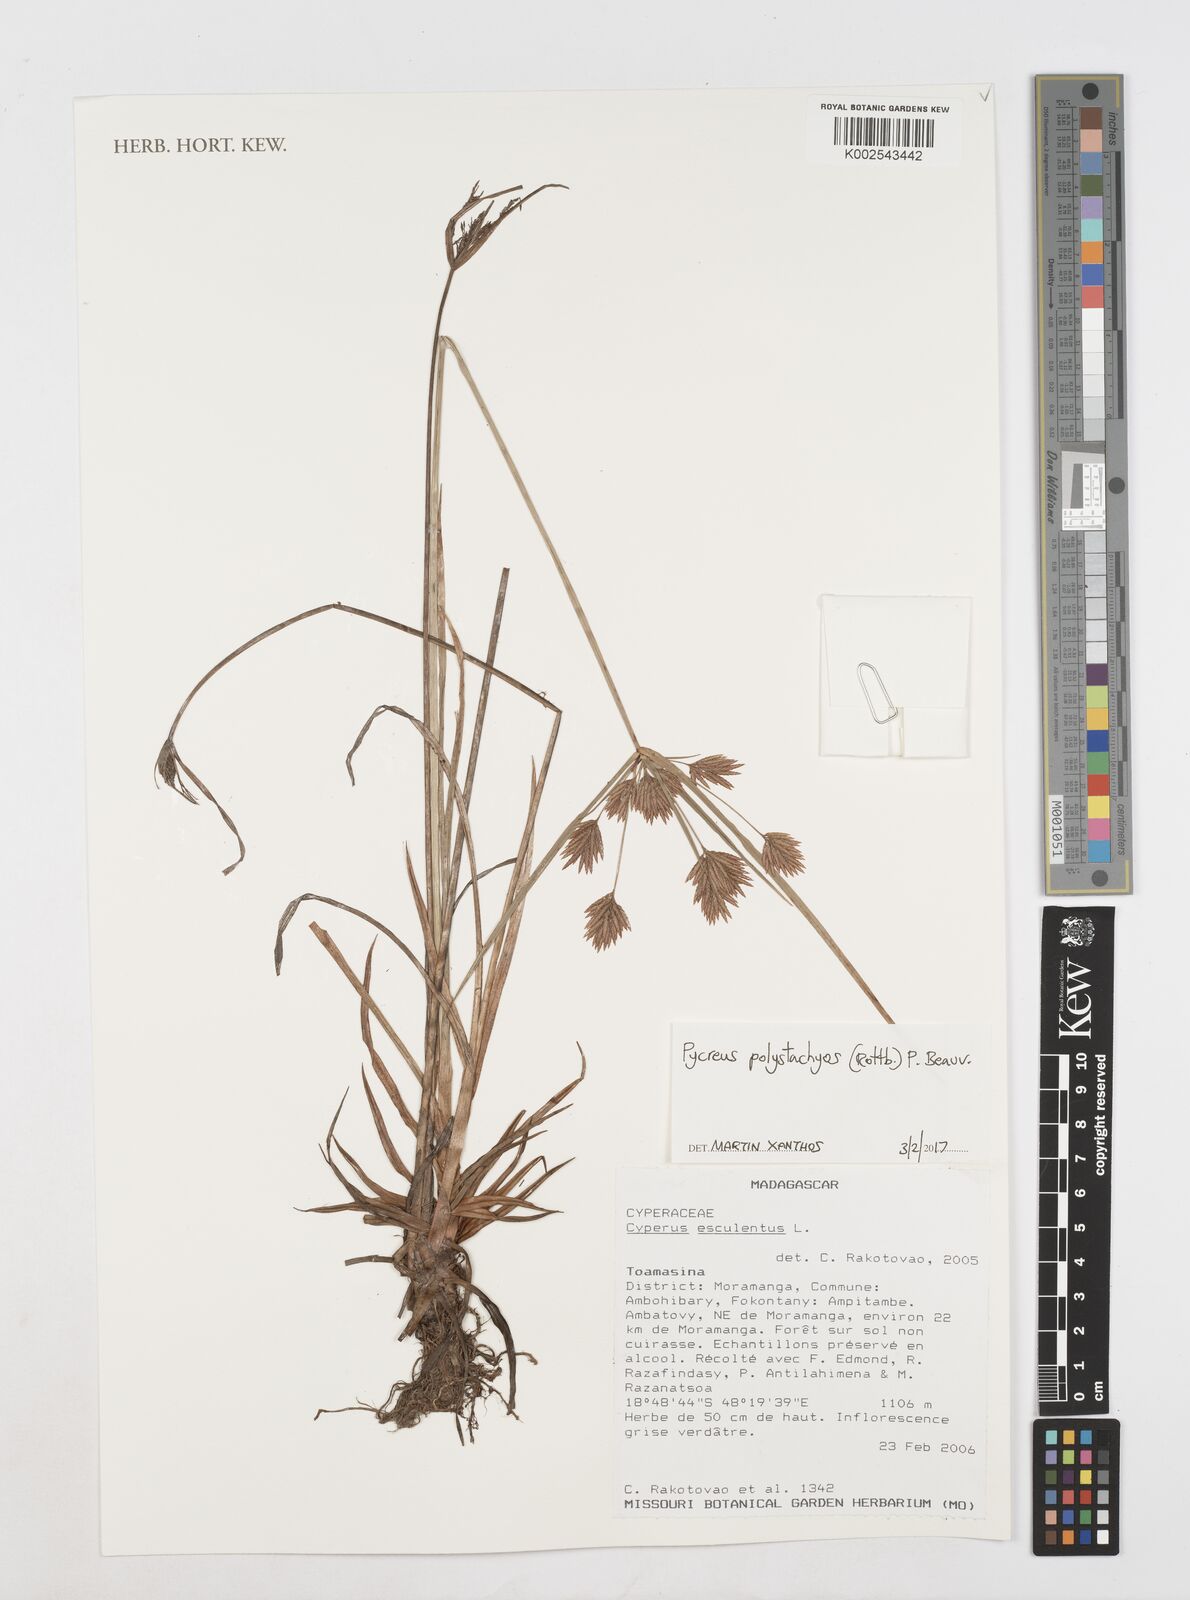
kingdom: Plantae
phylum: Tracheophyta
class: Liliopsida
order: Poales
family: Cyperaceae
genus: Cyperus
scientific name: Cyperus polystachyos
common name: Bunchy flat sedge
